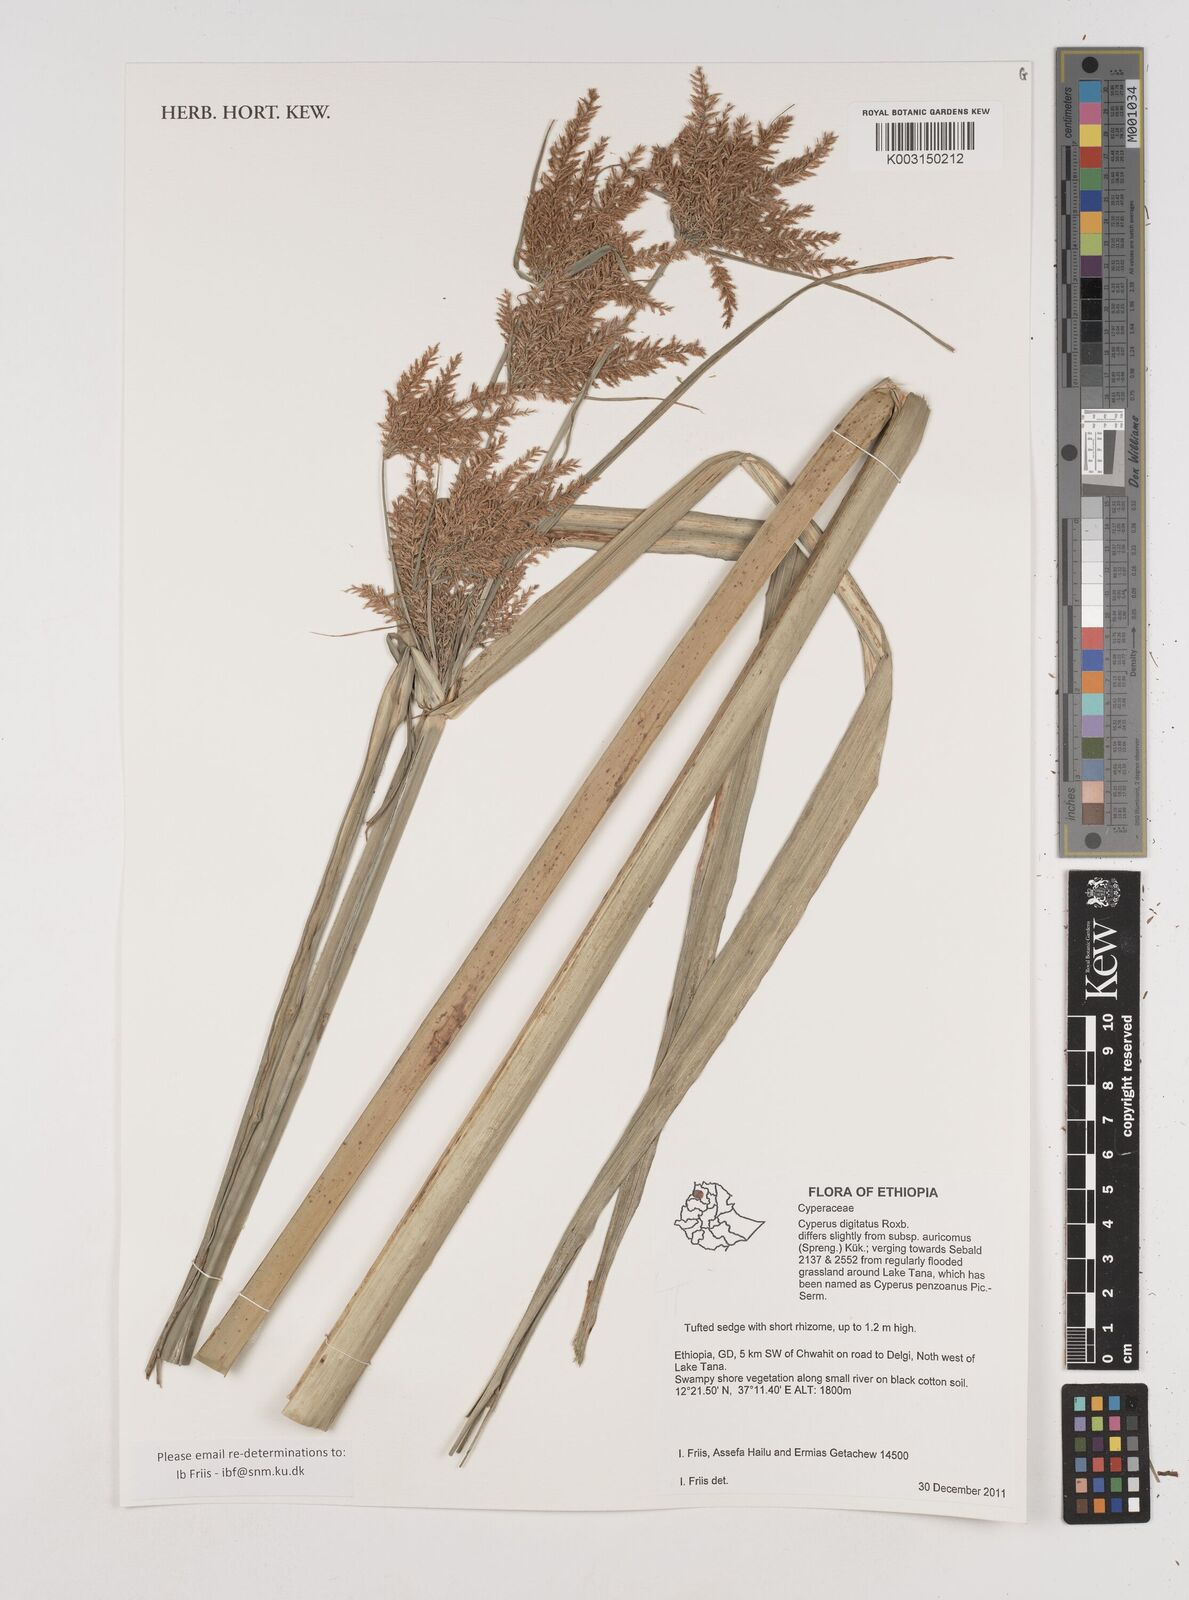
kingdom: Plantae
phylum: Tracheophyta
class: Liliopsida
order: Poales
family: Cyperaceae
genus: Cyperus
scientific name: Cyperus digitatus
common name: Finger flatsedge
